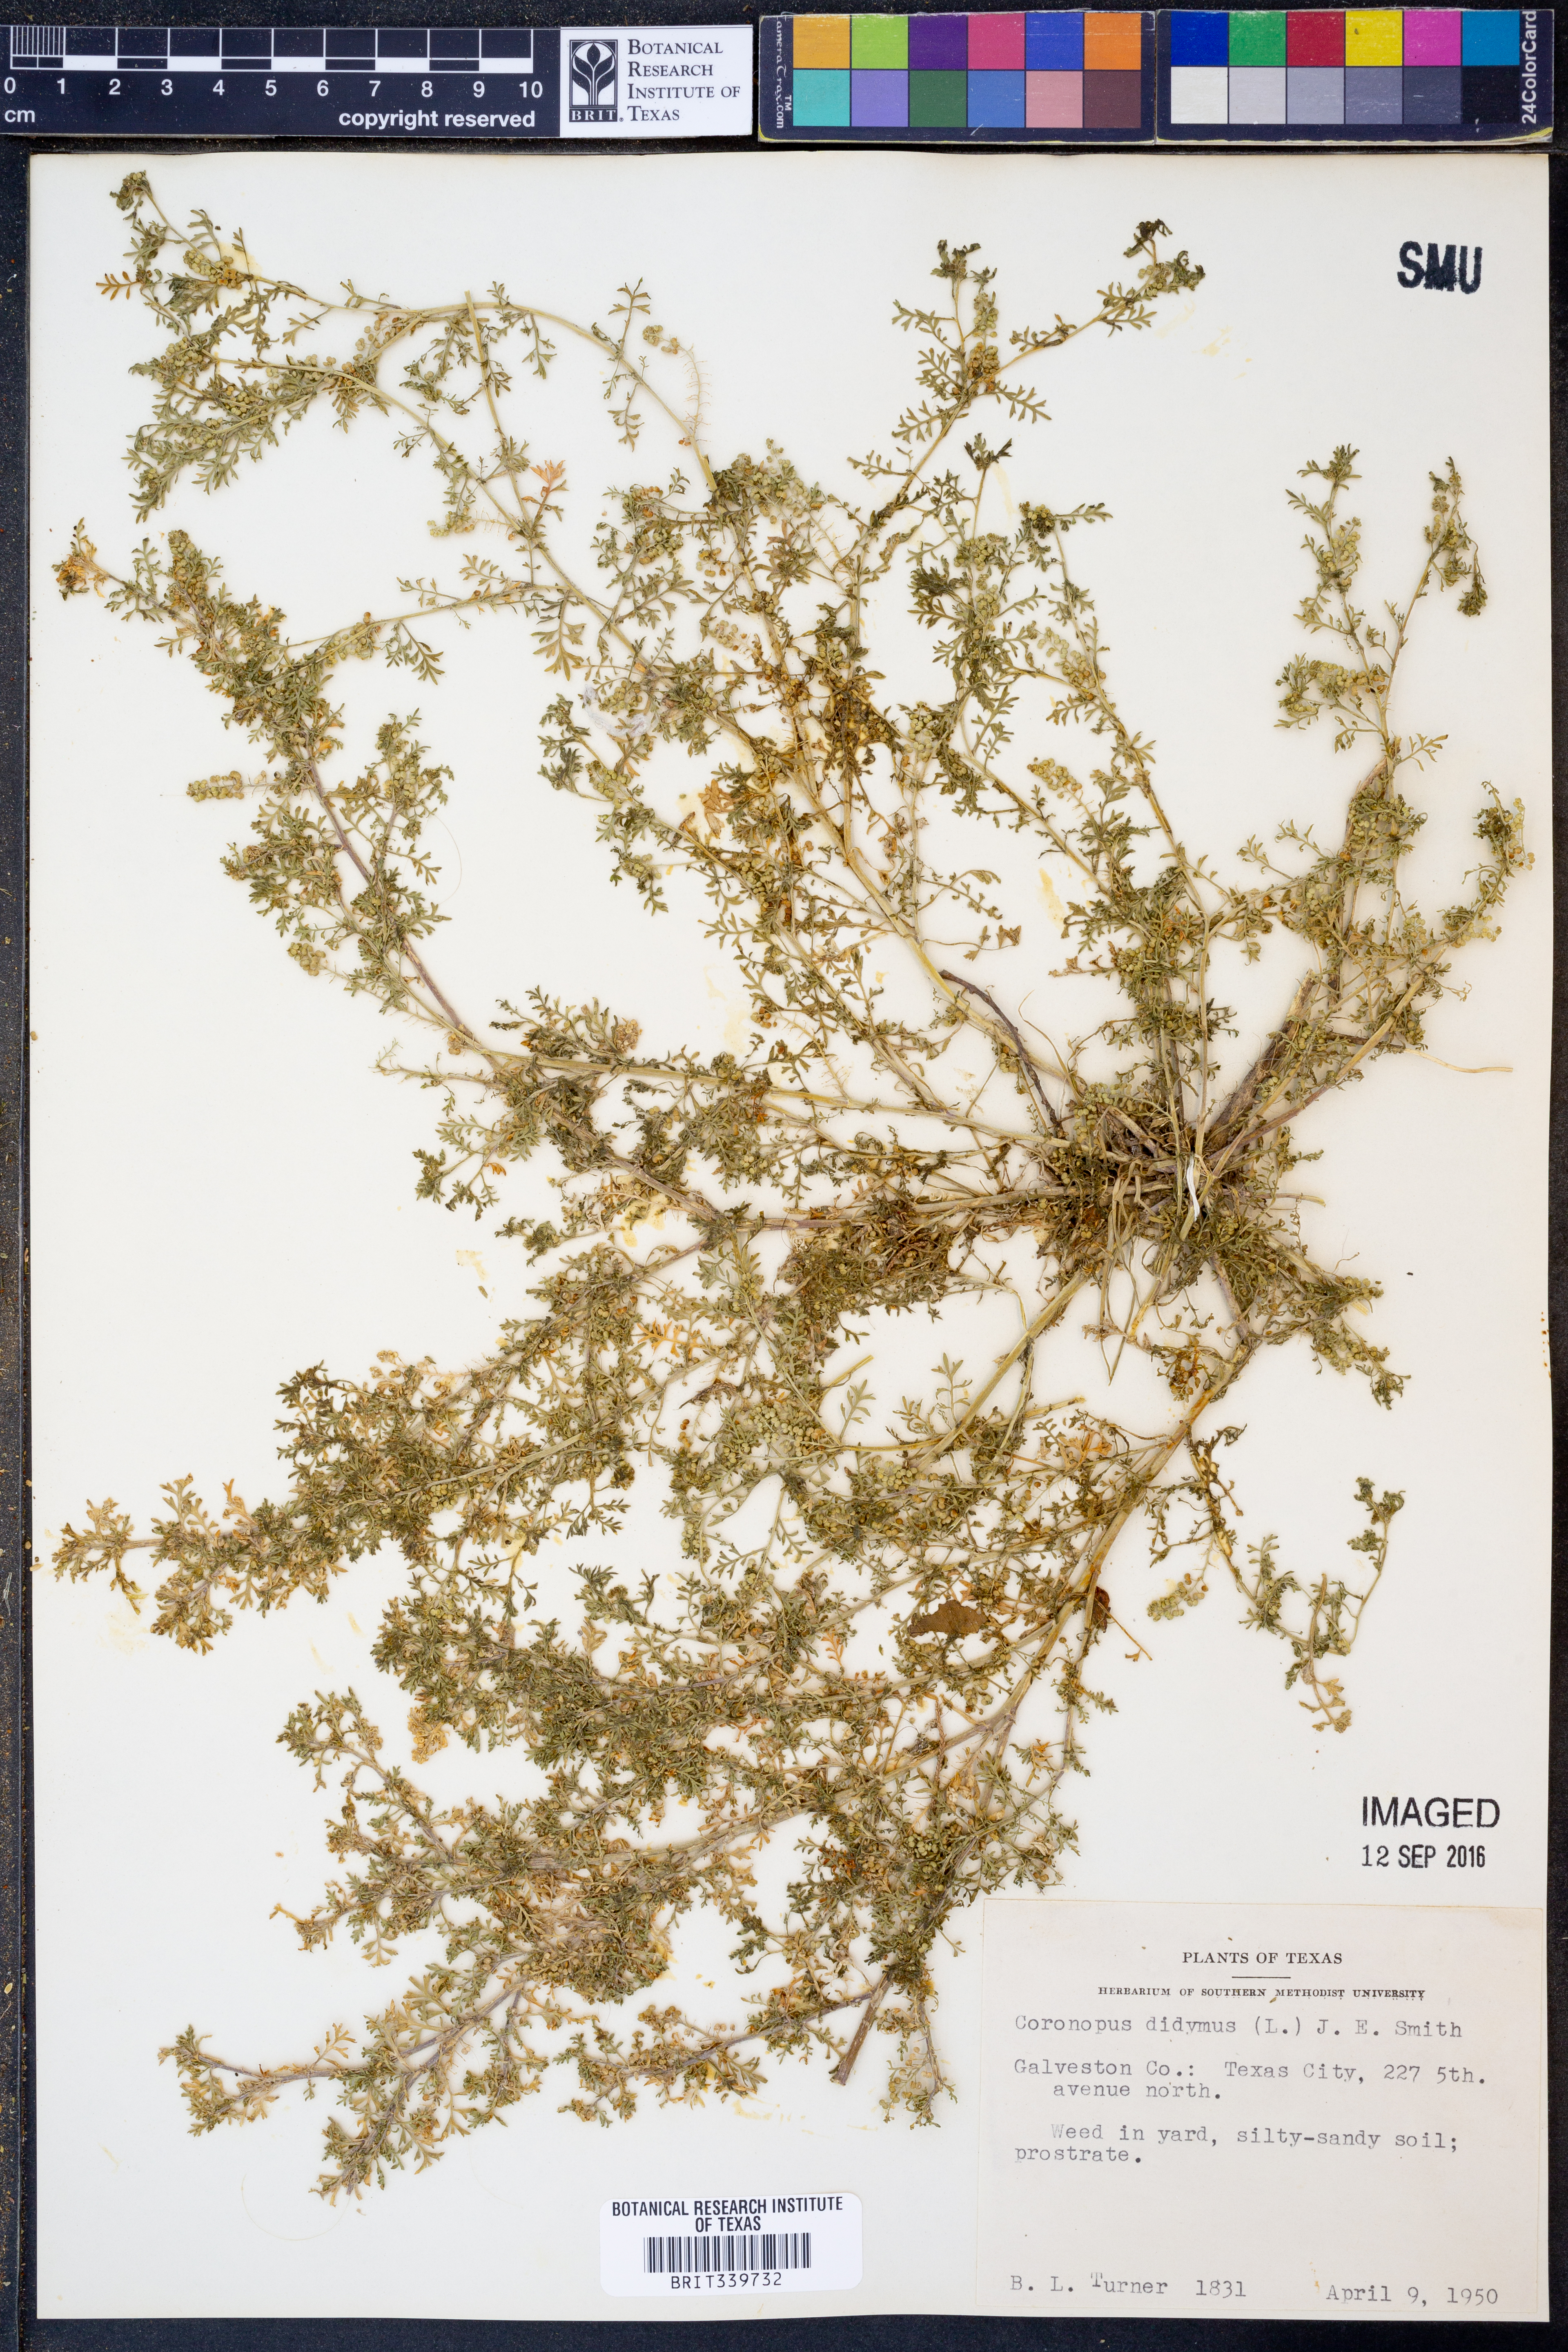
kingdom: Plantae
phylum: Tracheophyta
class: Magnoliopsida
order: Brassicales
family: Brassicaceae
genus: Lepidium
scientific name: Lepidium didymum
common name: Lesser swinecress
